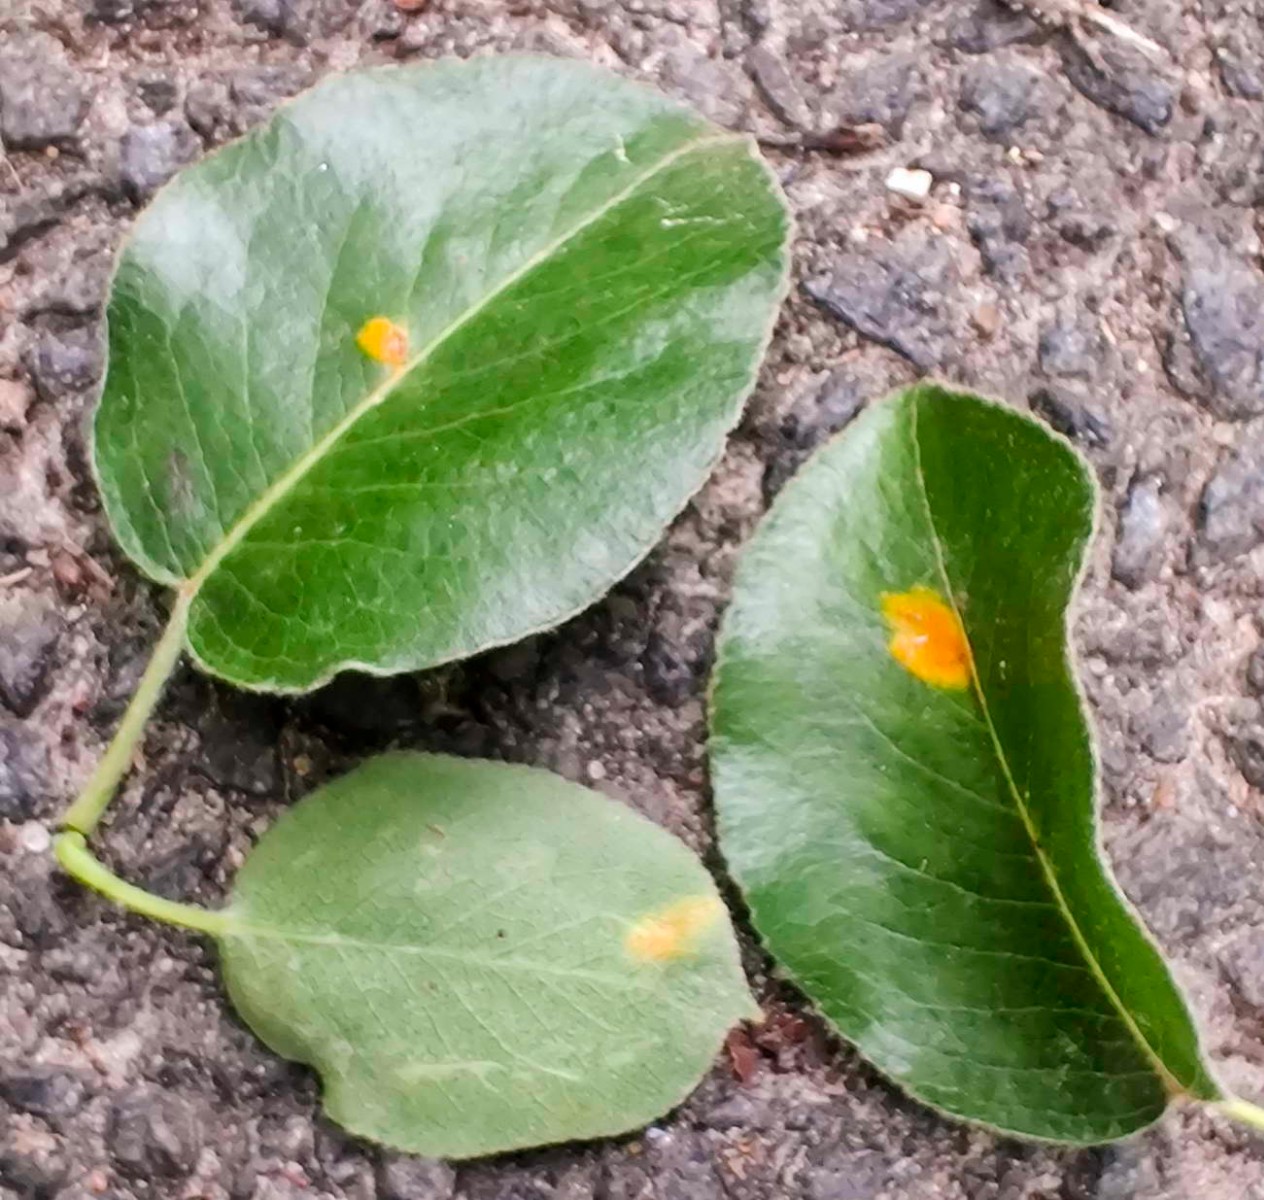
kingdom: Fungi
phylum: Basidiomycota
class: Pucciniomycetes
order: Pucciniales
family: Gymnosporangiaceae
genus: Gymnosporangium
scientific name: Gymnosporangium sabinae
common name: pæregitter-bævrerust
